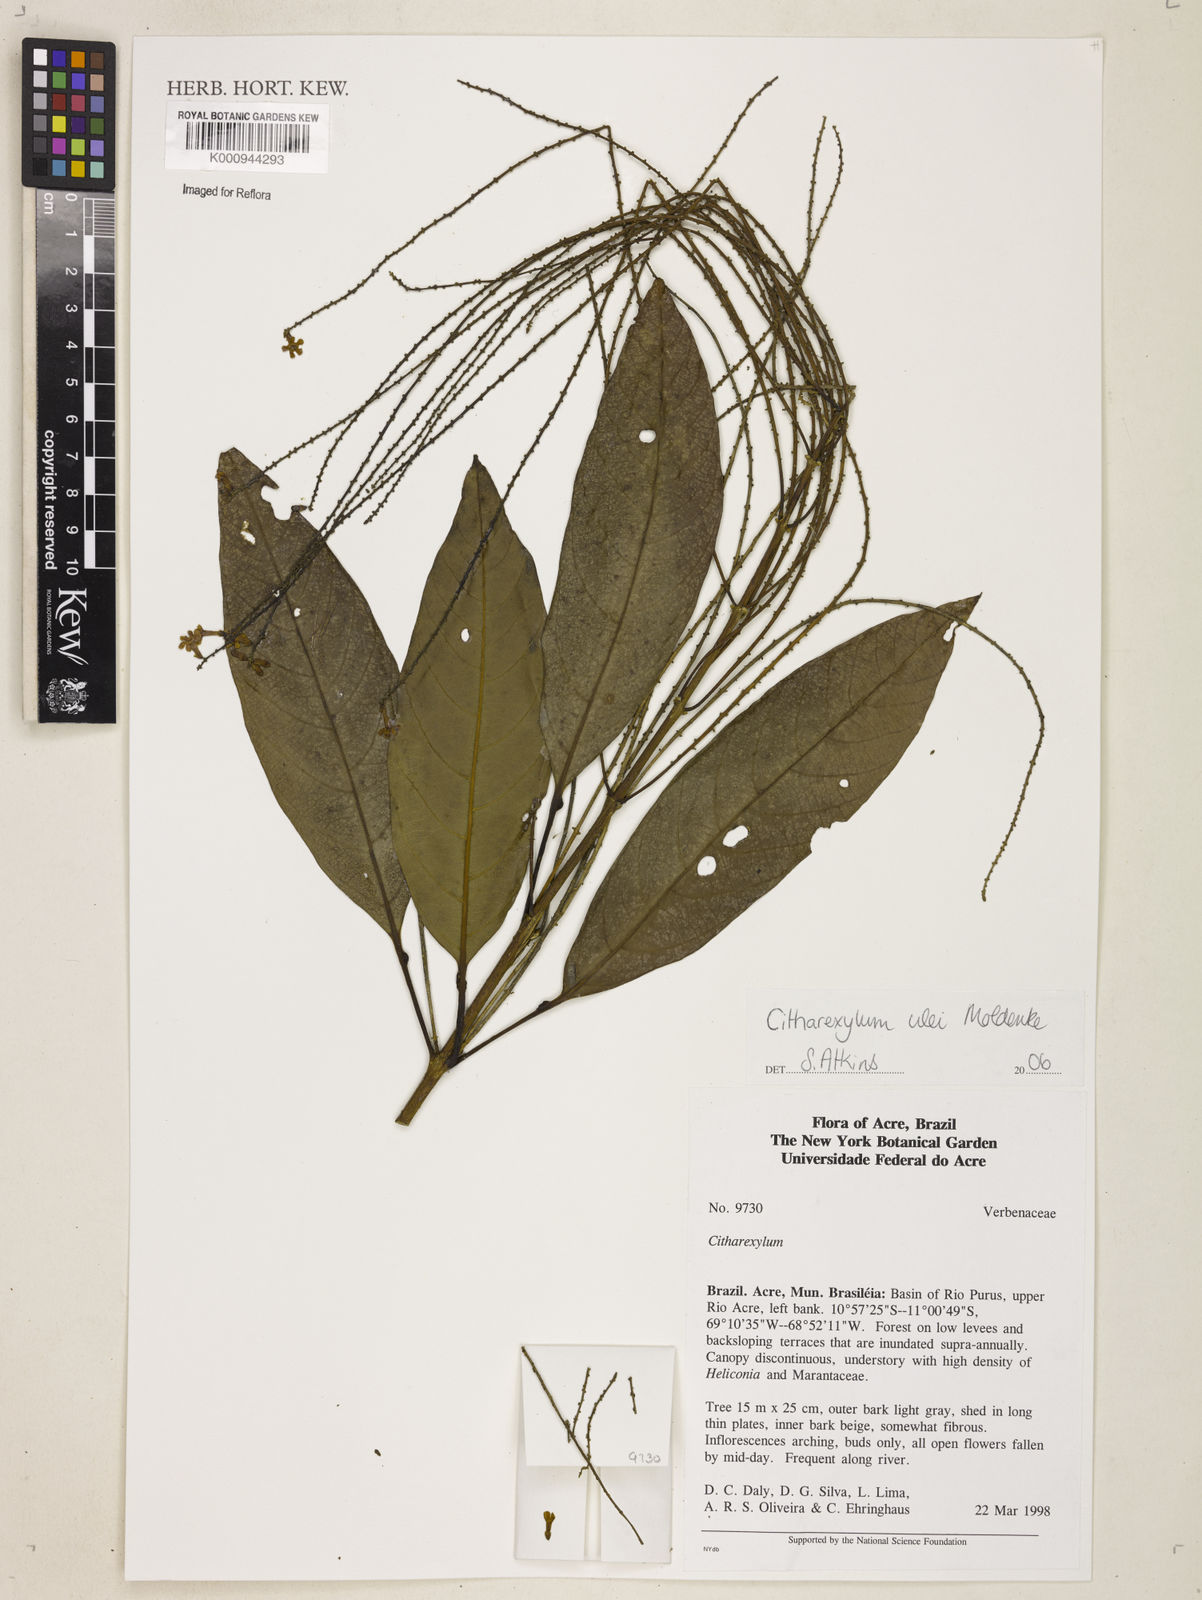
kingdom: Plantae
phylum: Tracheophyta
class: Magnoliopsida
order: Lamiales
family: Verbenaceae
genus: Citharexylum
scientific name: Citharexylum ulei
